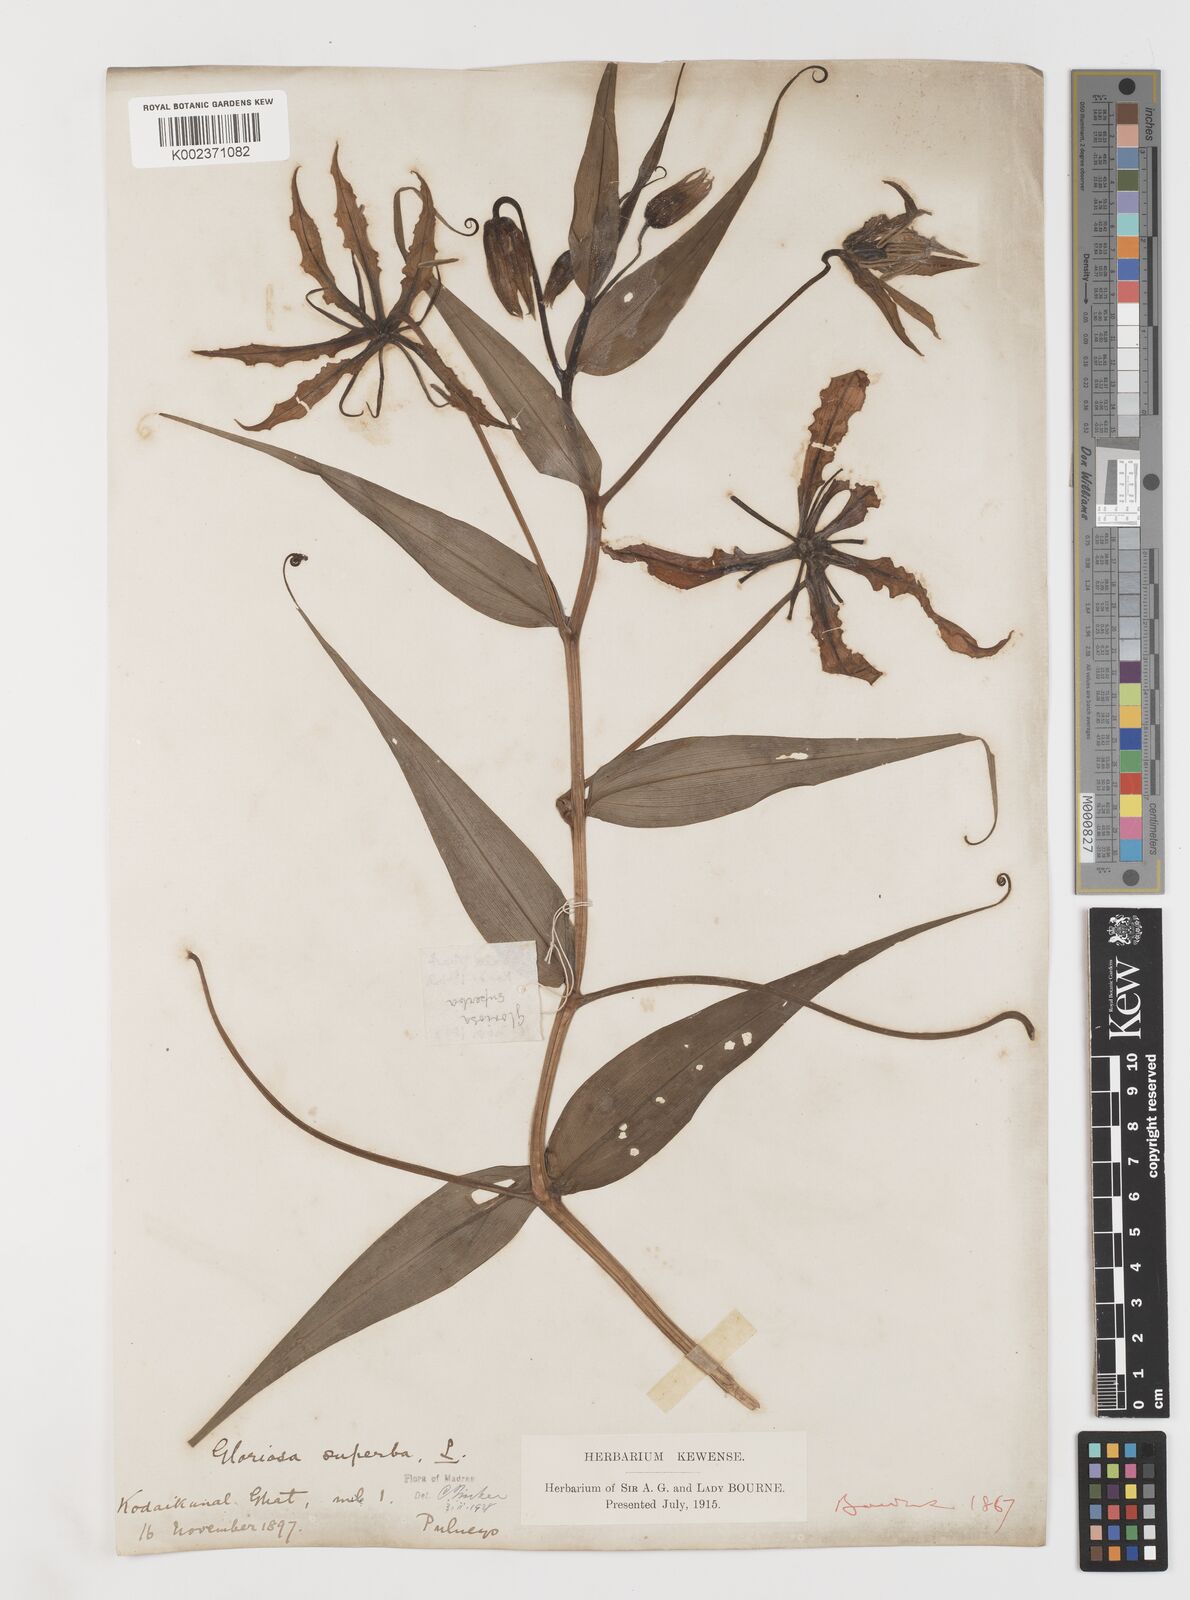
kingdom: Plantae
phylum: Tracheophyta
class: Liliopsida
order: Liliales
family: Colchicaceae
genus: Gloriosa
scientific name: Gloriosa superba
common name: Flame lily
